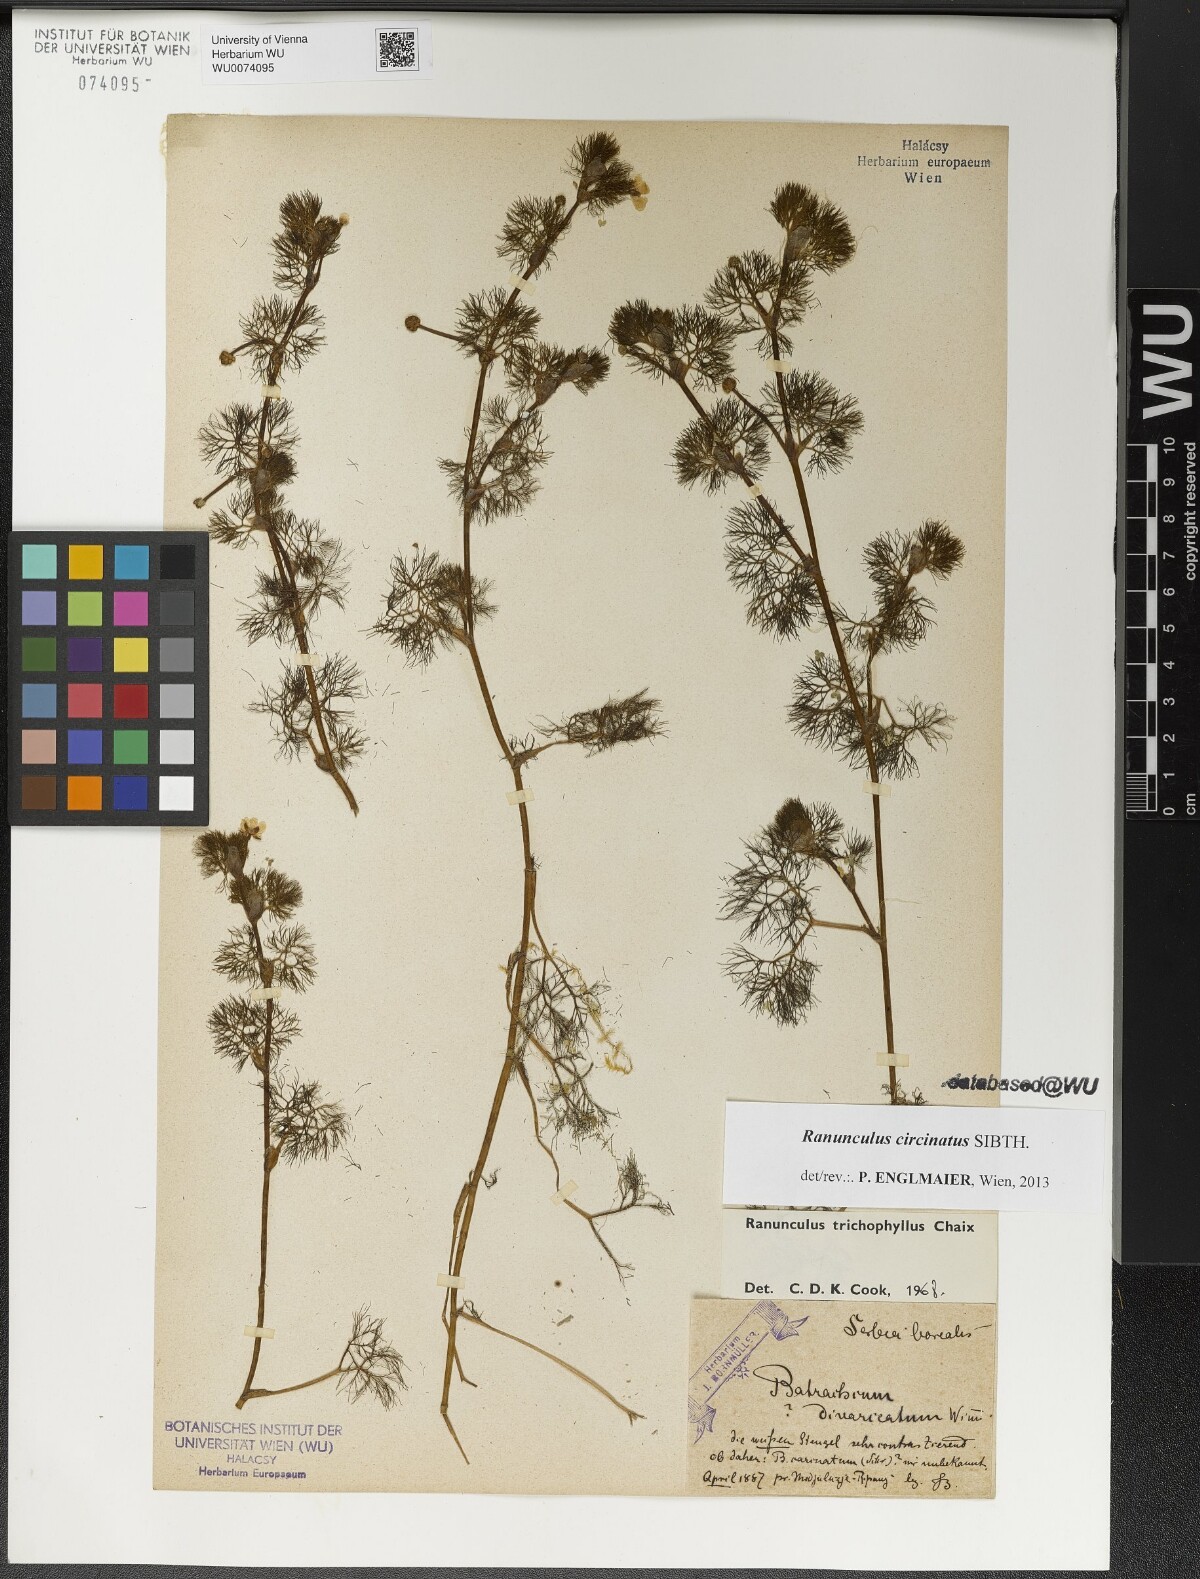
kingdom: Plantae
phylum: Tracheophyta
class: Magnoliopsida
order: Ranunculales
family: Ranunculaceae
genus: Ranunculus
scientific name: Ranunculus circinatus
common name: Fan-leaved water-crowfoot
